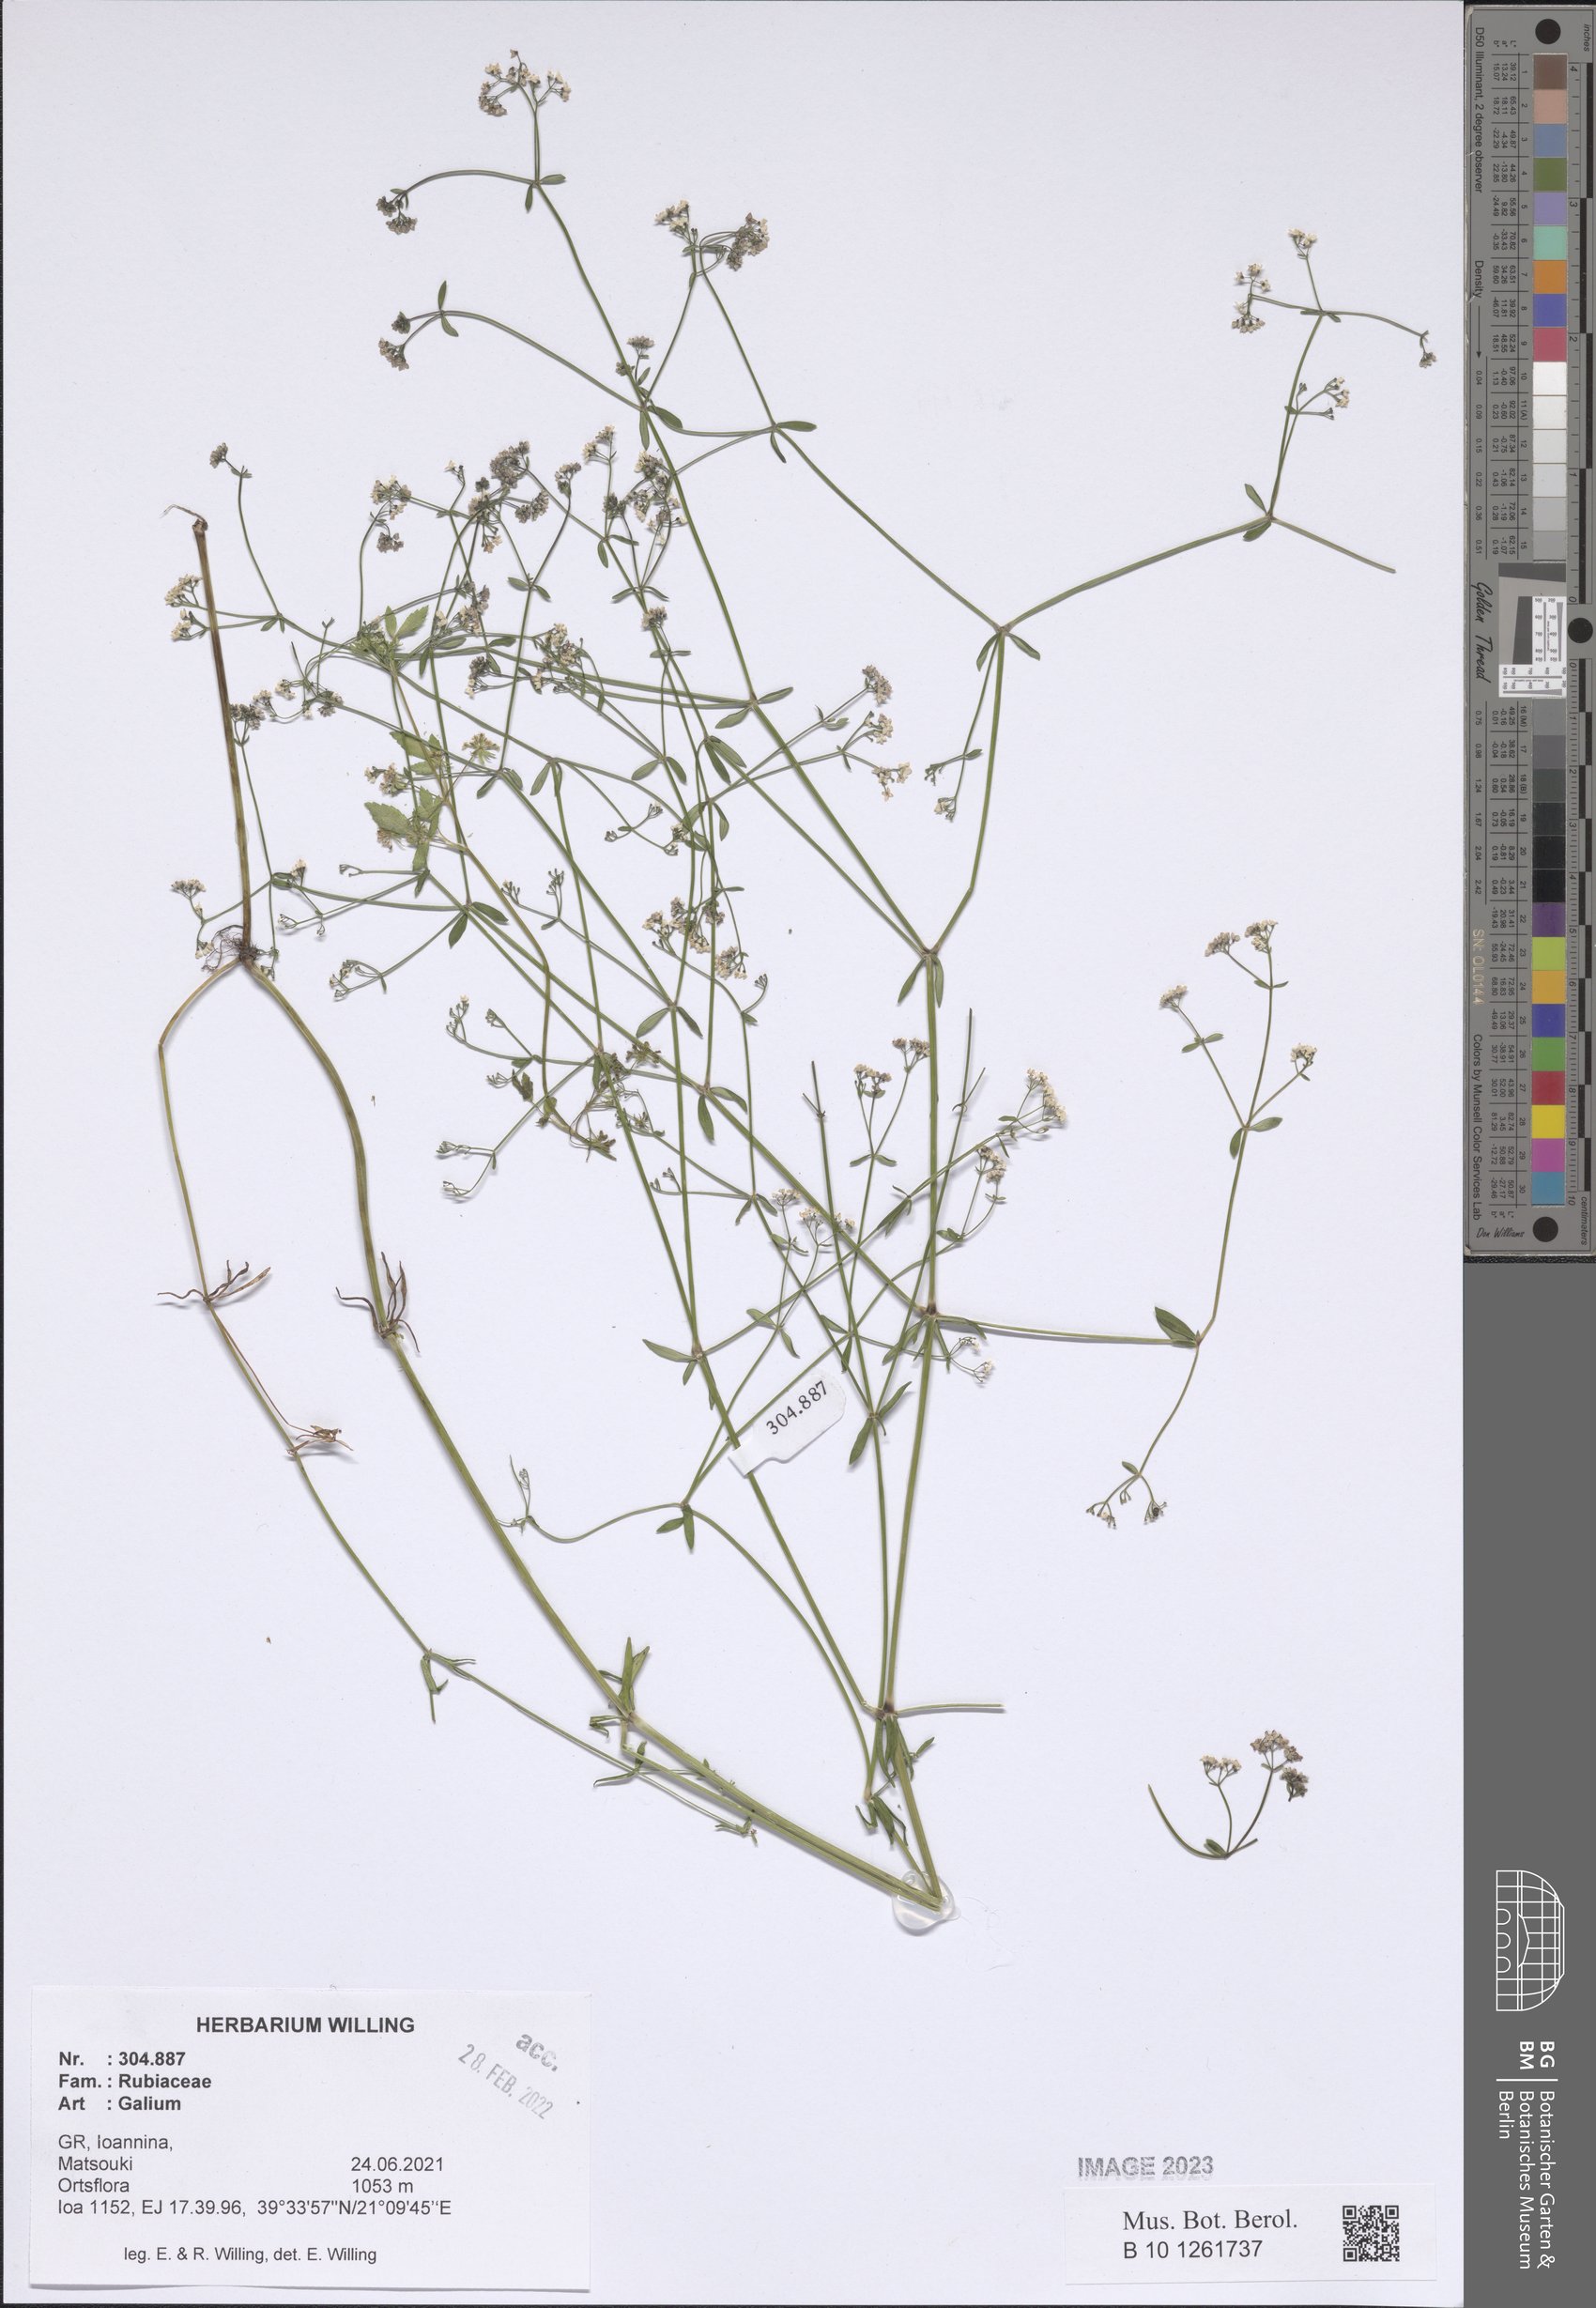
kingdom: Plantae
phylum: Tracheophyta
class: Magnoliopsida
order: Gentianales
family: Rubiaceae
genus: Galium
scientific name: Galium
